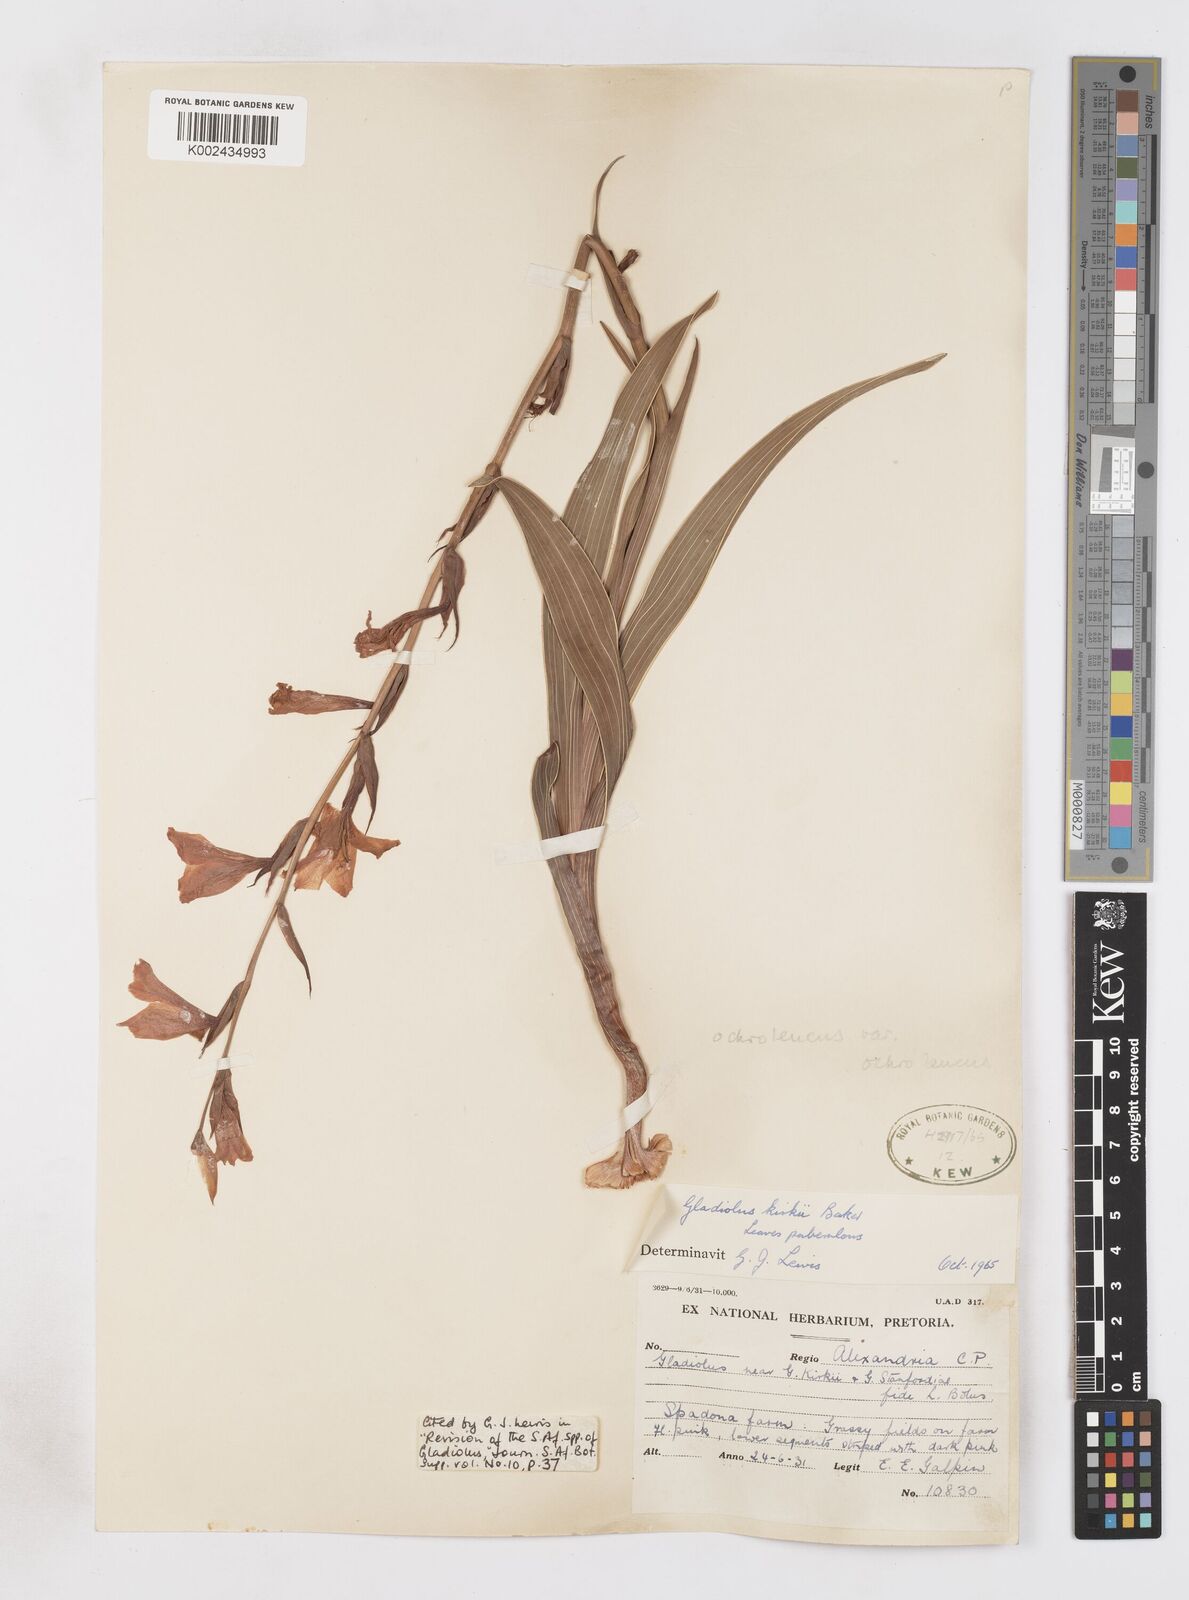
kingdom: Plantae
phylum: Tracheophyta
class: Liliopsida
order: Asparagales
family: Iridaceae
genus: Gladiolus
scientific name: Gladiolus ochroleucus
